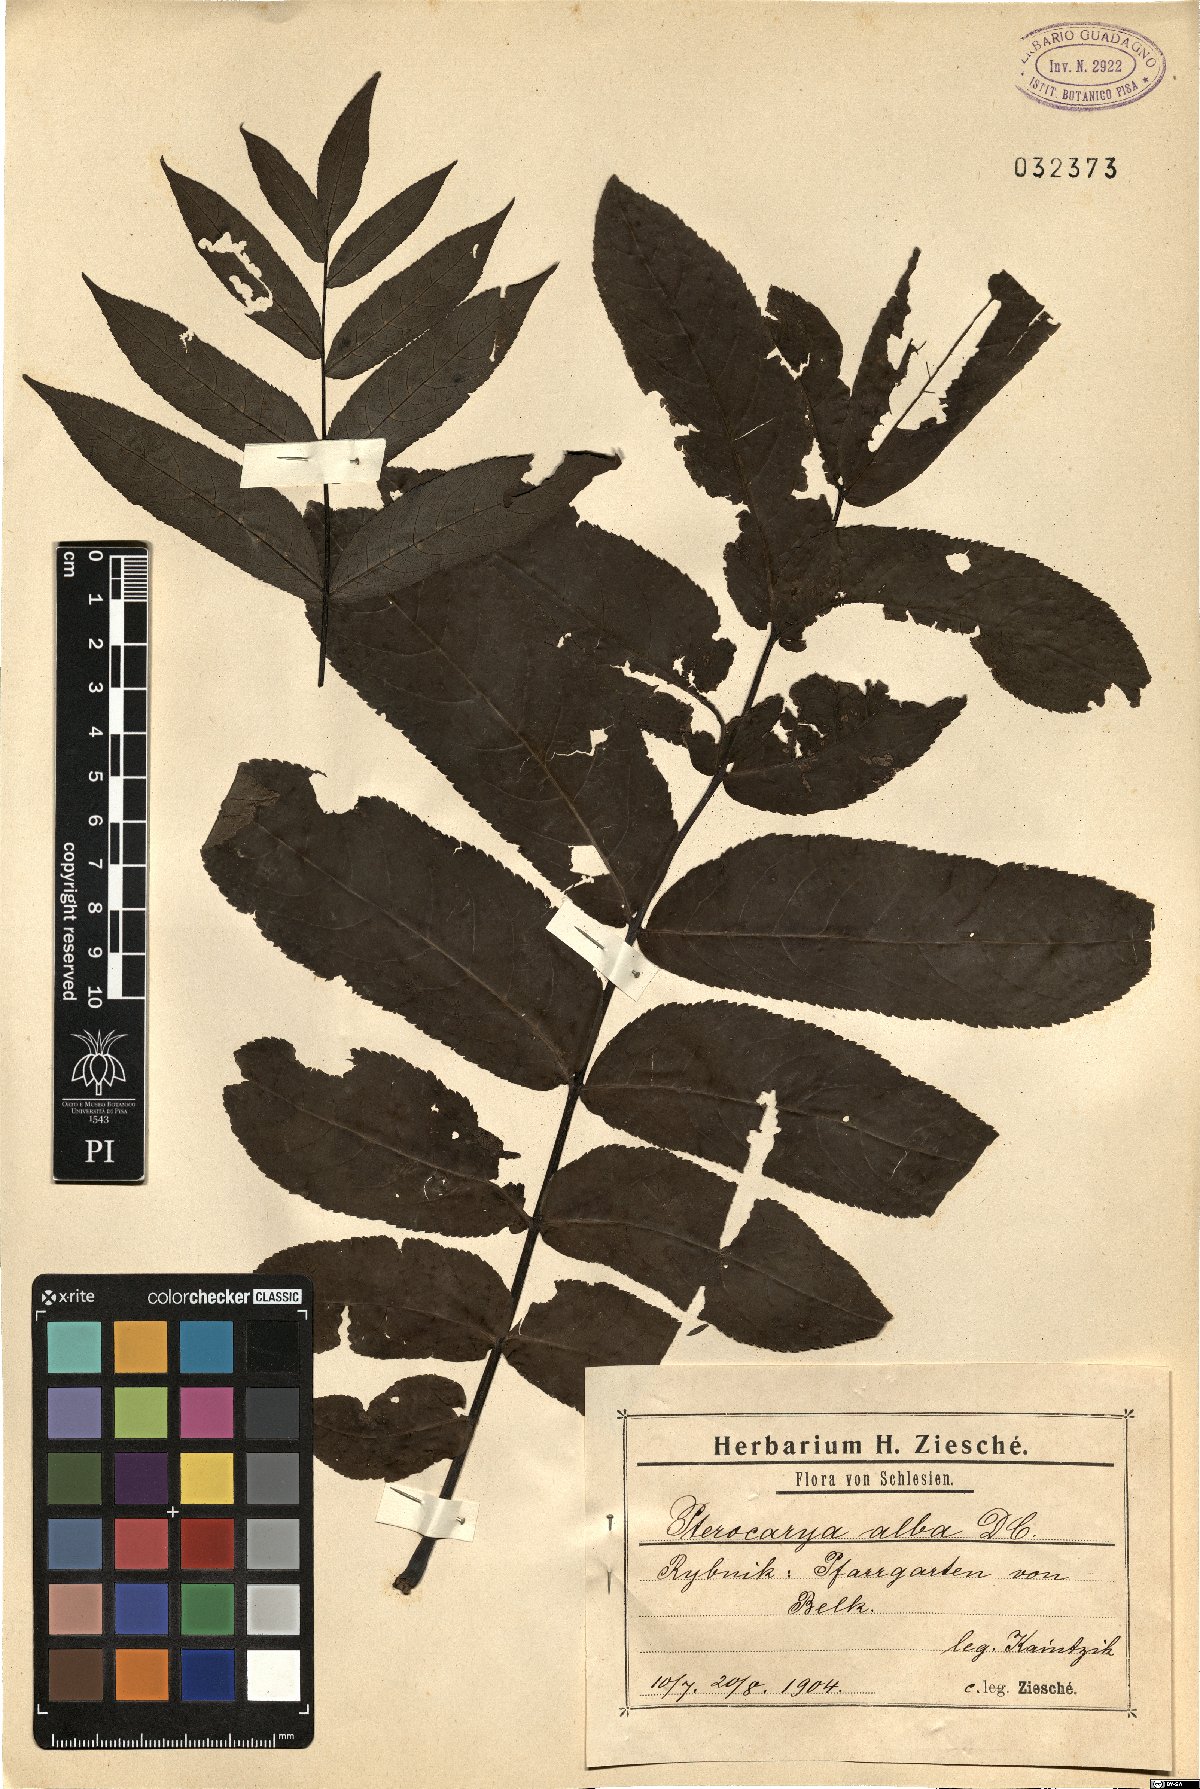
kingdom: Plantae
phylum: Tracheophyta
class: Magnoliopsida
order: Fagales
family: Juglandaceae
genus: Pterocarya
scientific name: Pterocarya
